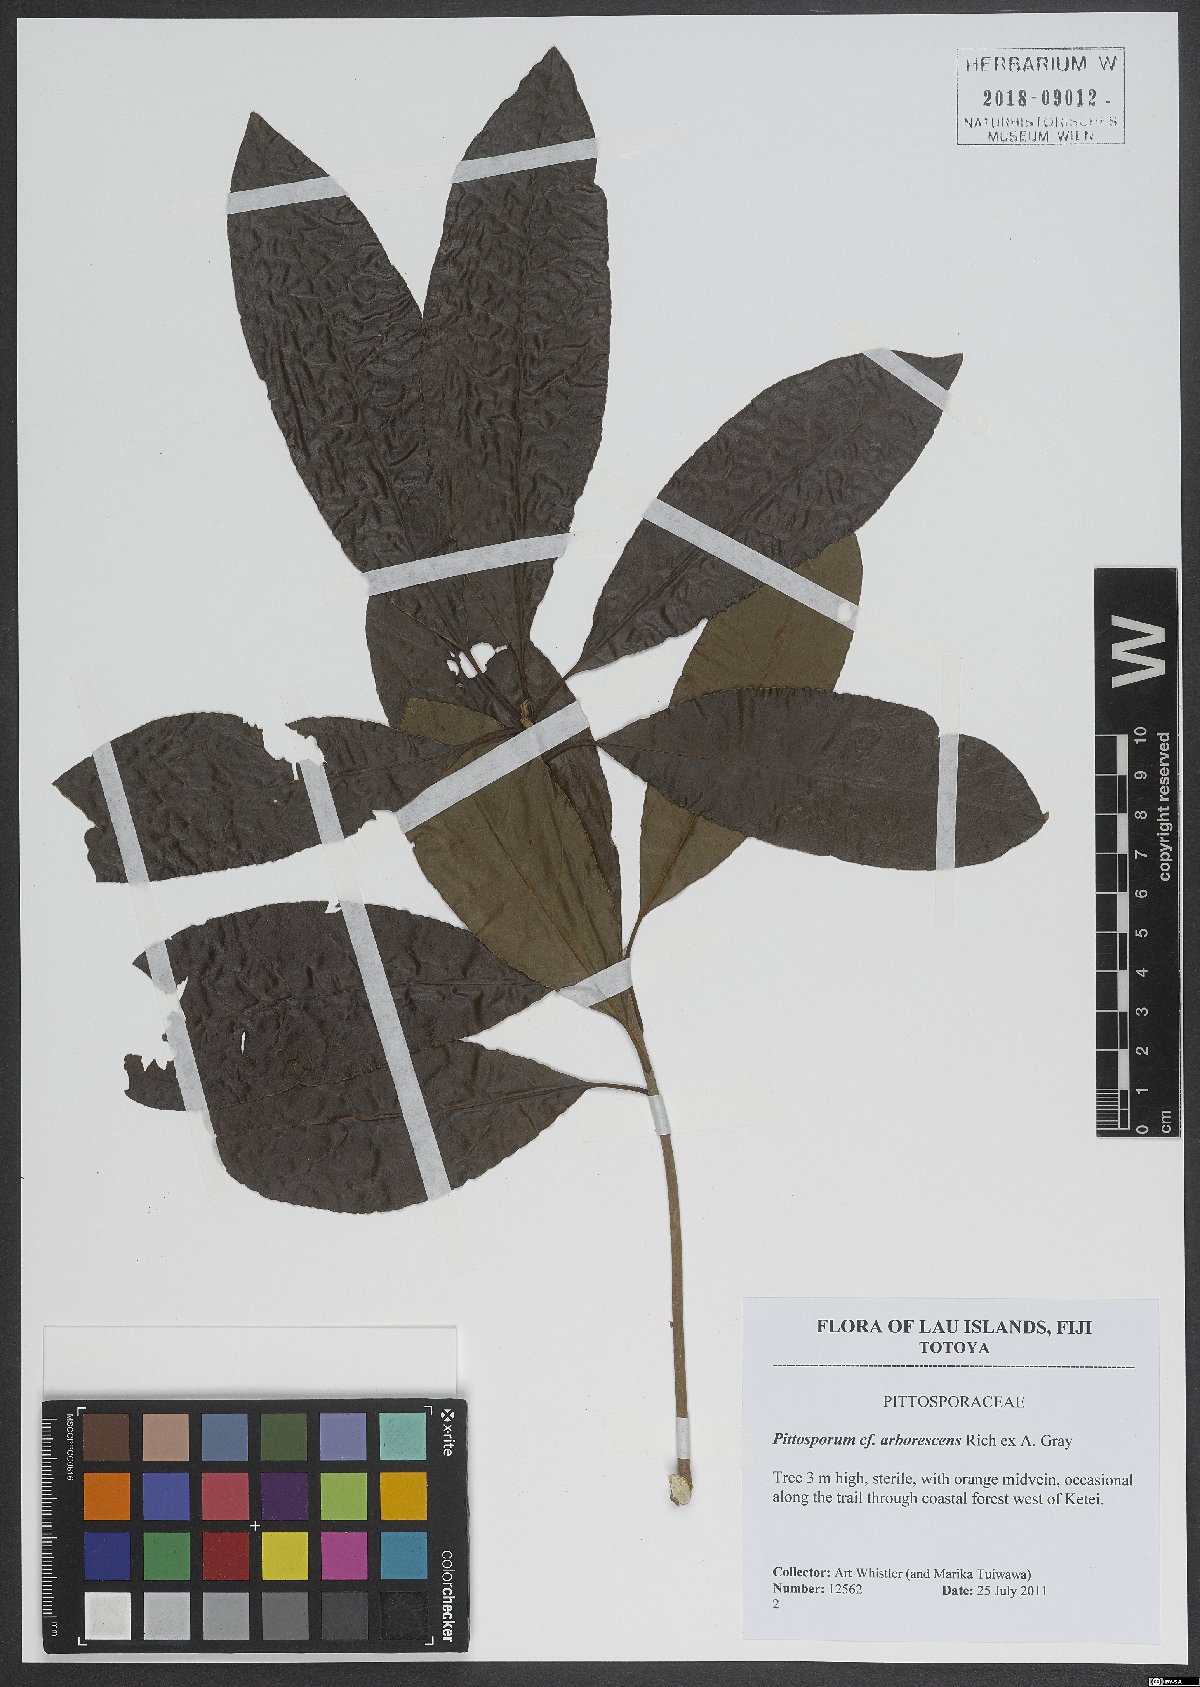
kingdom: Plantae
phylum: Tracheophyta
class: Magnoliopsida
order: Apiales
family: Pittosporaceae
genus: Pittosporum
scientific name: Pittosporum arborescens
